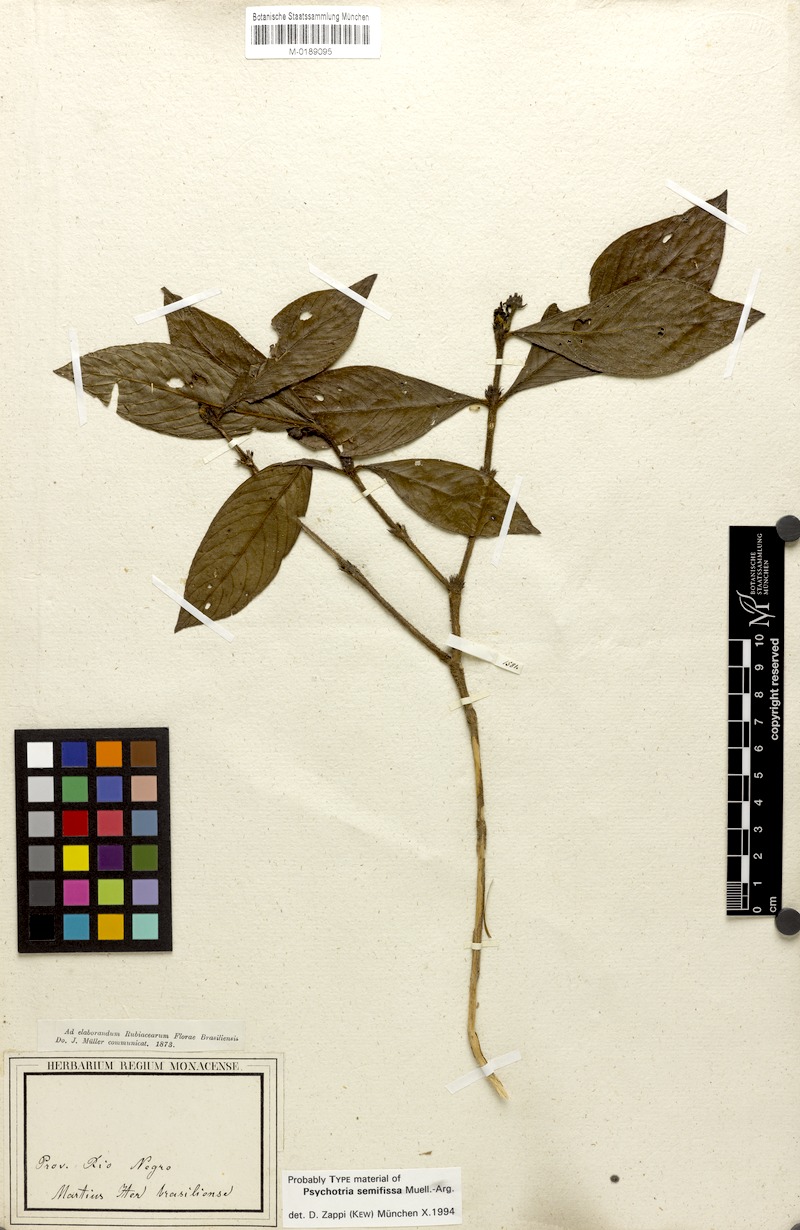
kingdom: Plantae
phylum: Tracheophyta
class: Magnoliopsida
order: Gentianales
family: Rubiaceae
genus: Psychotria
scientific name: Psychotria semifissa
